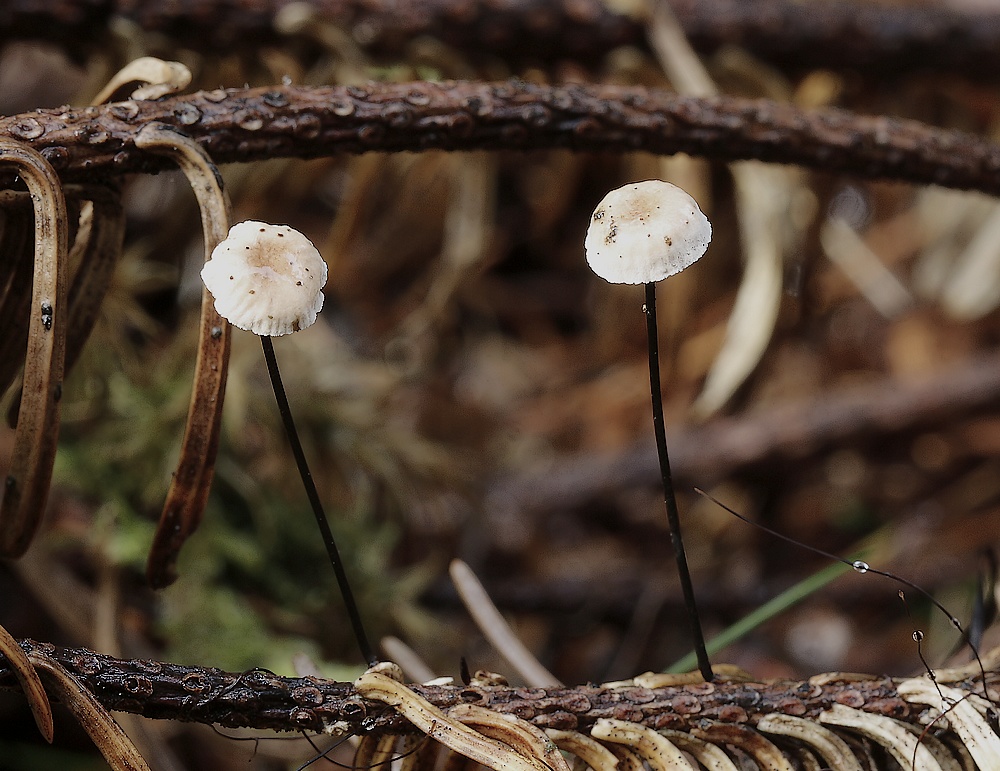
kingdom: Fungi
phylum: Basidiomycota
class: Agaricomycetes
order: Agaricales
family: Omphalotaceae
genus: Gymnopus
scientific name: Gymnopus androsaceus
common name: trådstokket fladhat
